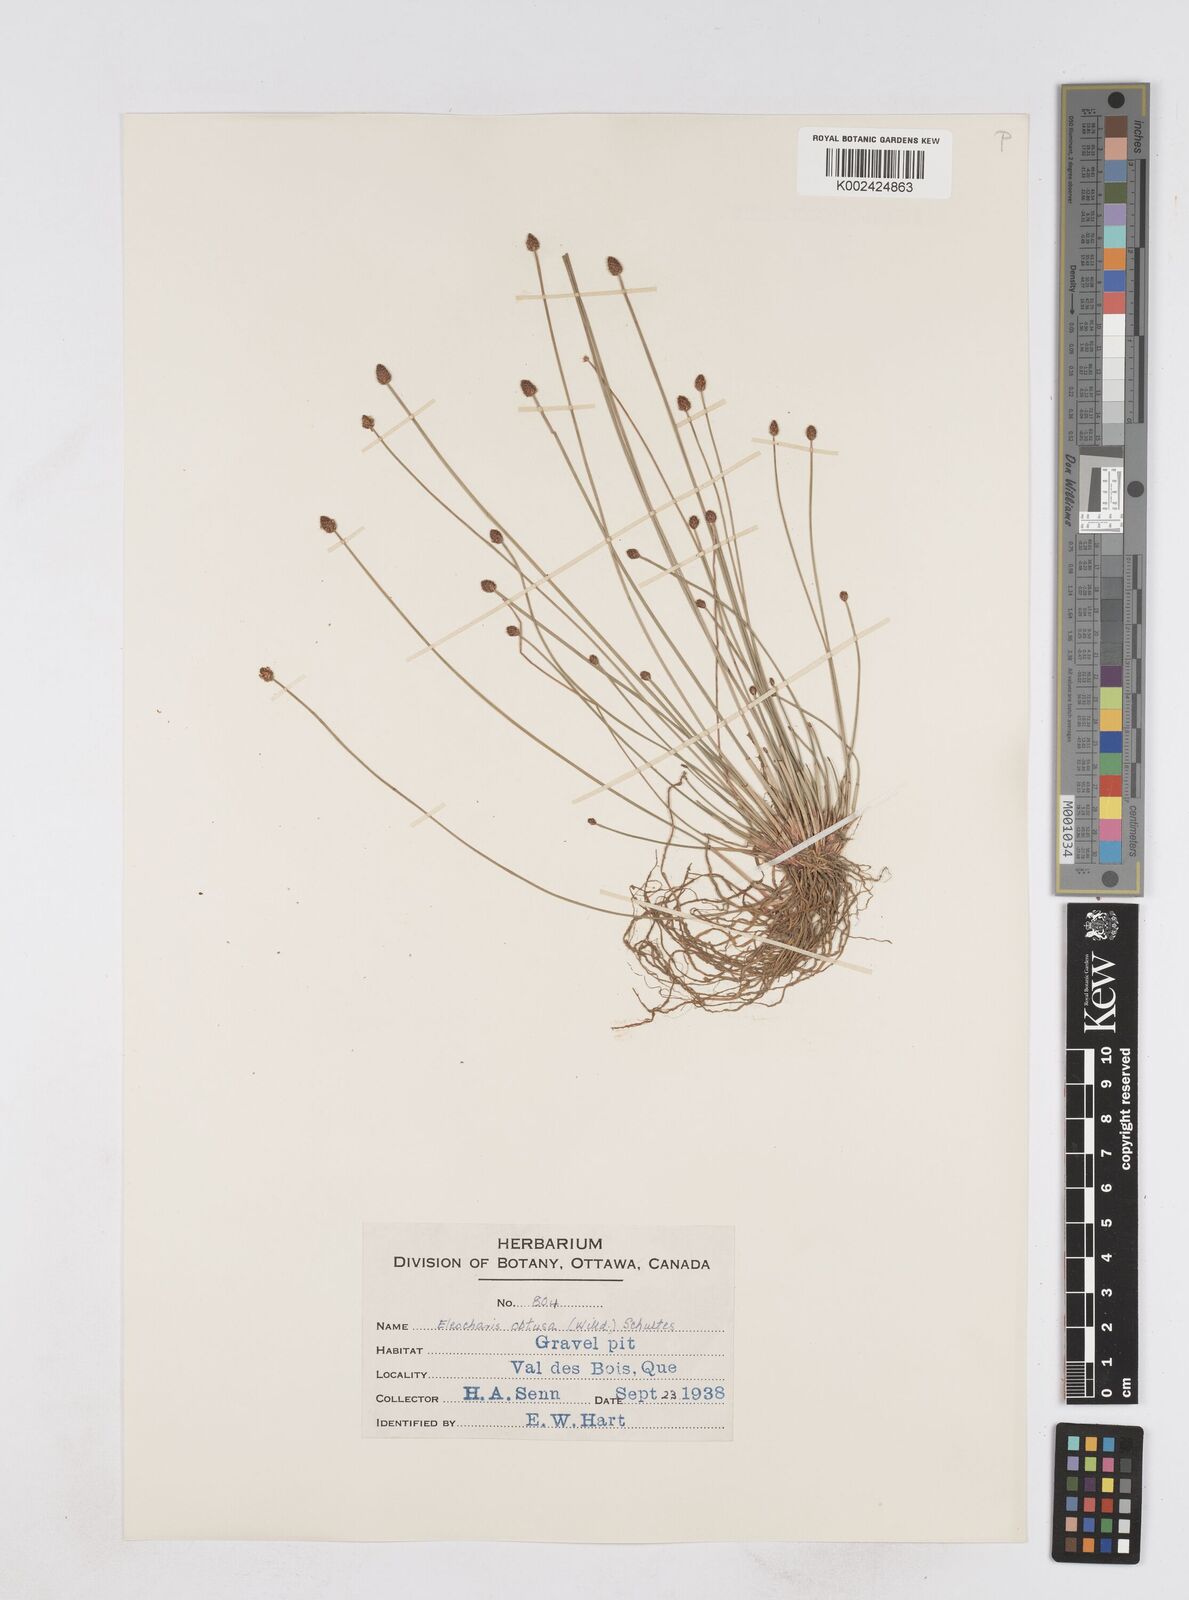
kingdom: Plantae
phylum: Tracheophyta
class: Liliopsida
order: Poales
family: Cyperaceae
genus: Eleocharis
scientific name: Eleocharis obtusa
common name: Blunt spikerush
